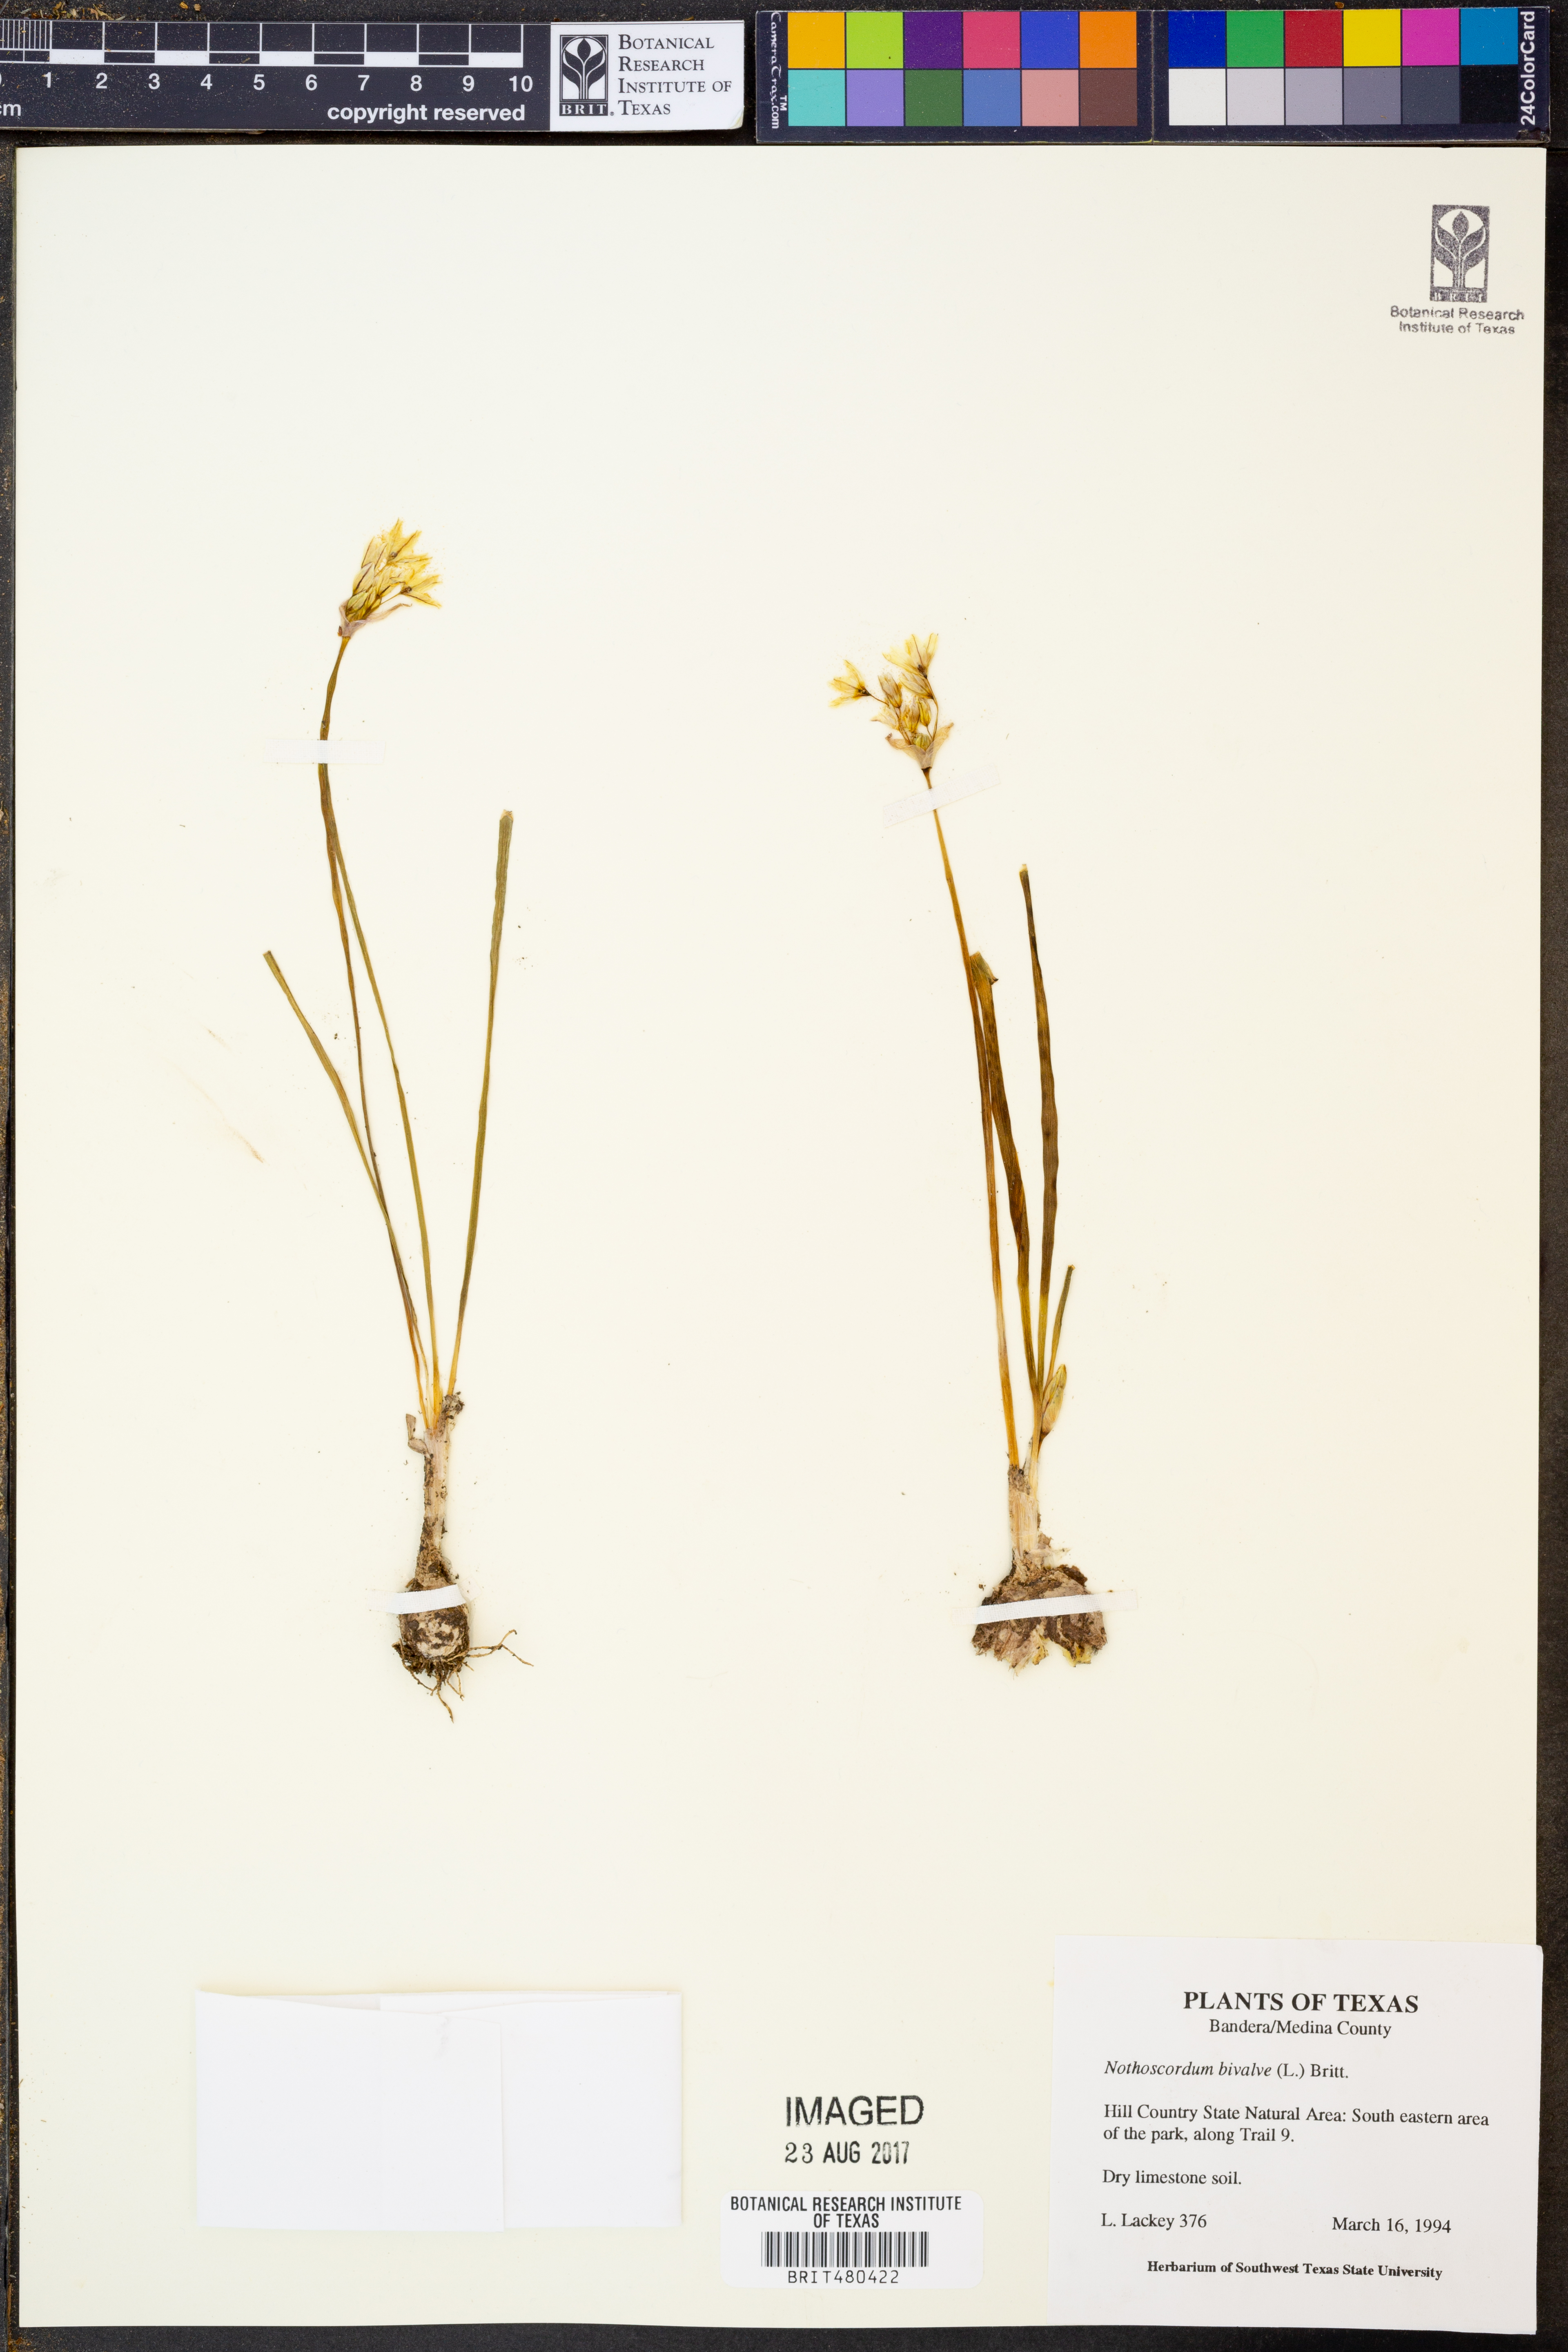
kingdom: Plantae
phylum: Tracheophyta
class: Liliopsida
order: Asparagales
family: Amaryllidaceae
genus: Nothoscordum
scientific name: Nothoscordum bivalve
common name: Crow-poison
